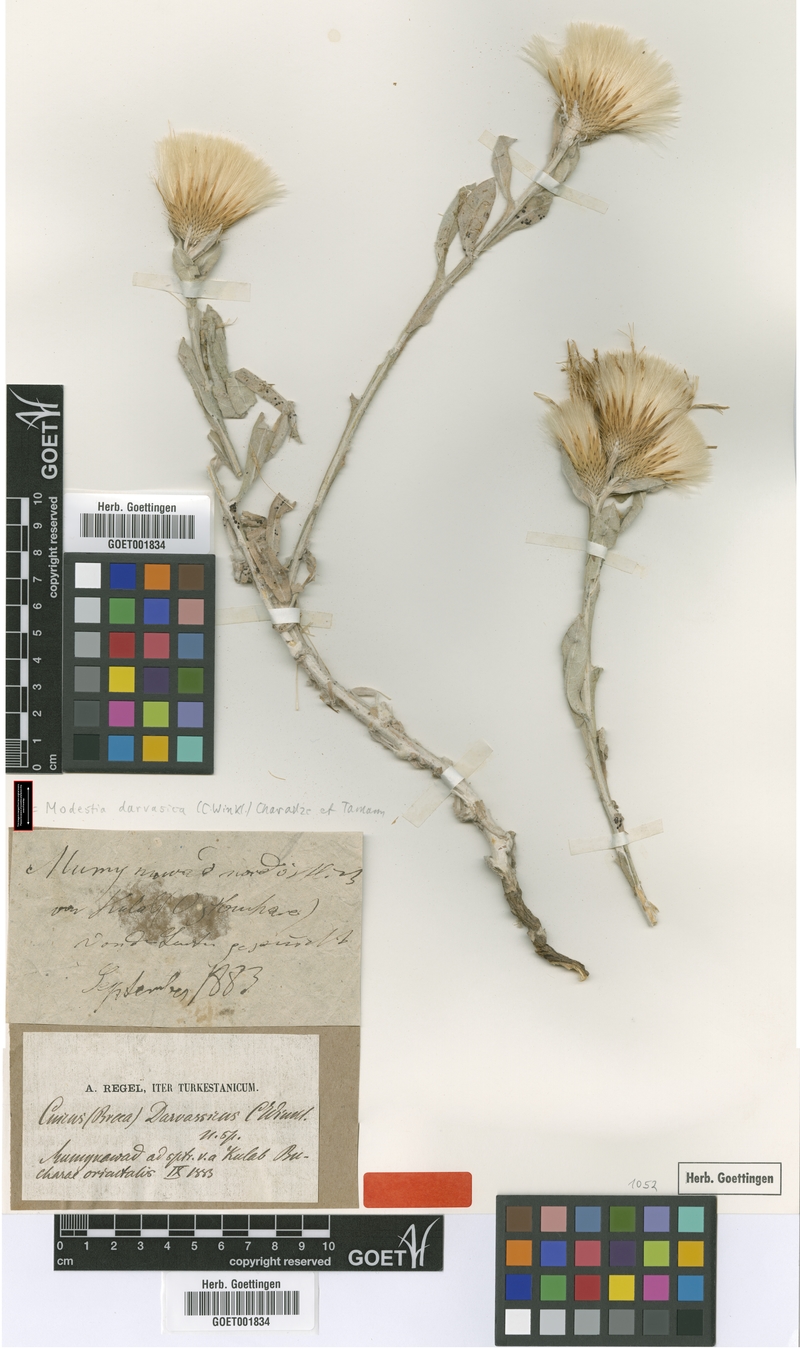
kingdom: Plantae
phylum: Tracheophyta
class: Magnoliopsida
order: Asterales
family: Asteraceae
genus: Anacantha
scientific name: Anacantha darwasica
